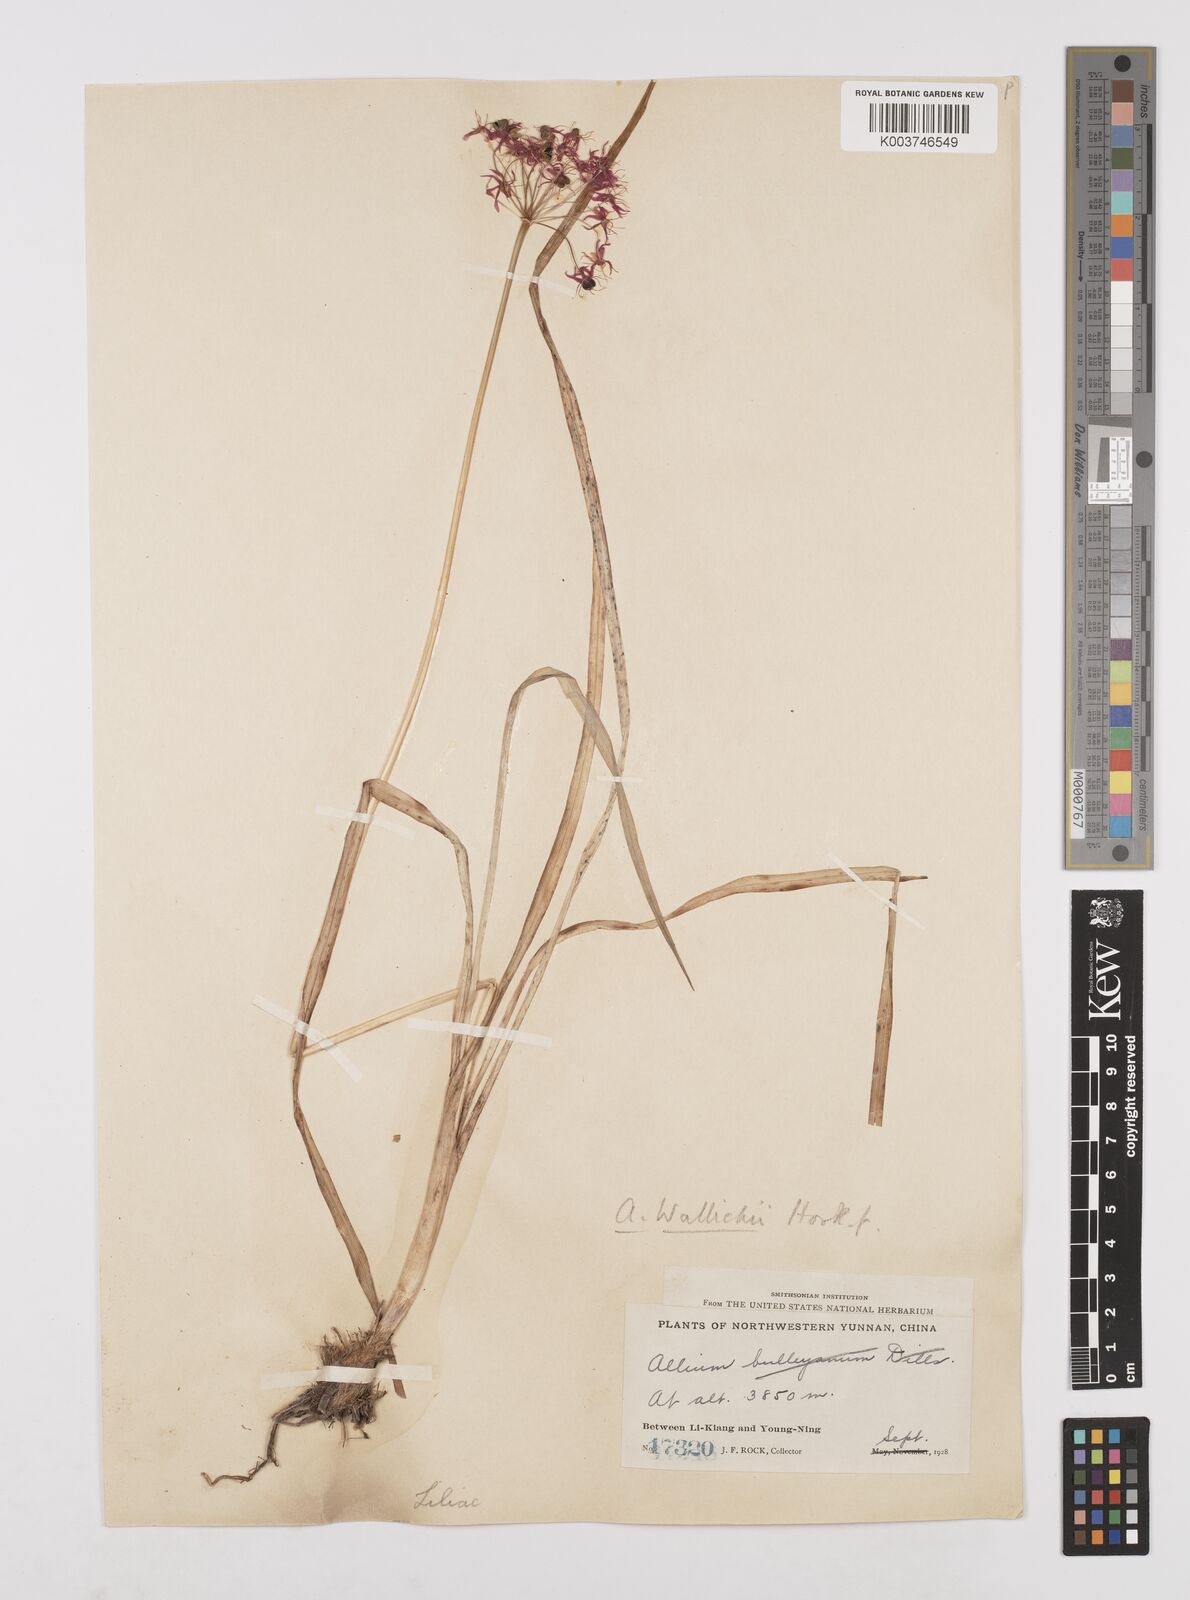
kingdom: Plantae
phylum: Tracheophyta
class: Liliopsida
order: Asparagales
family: Amaryllidaceae
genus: Allium
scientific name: Allium wallichii
